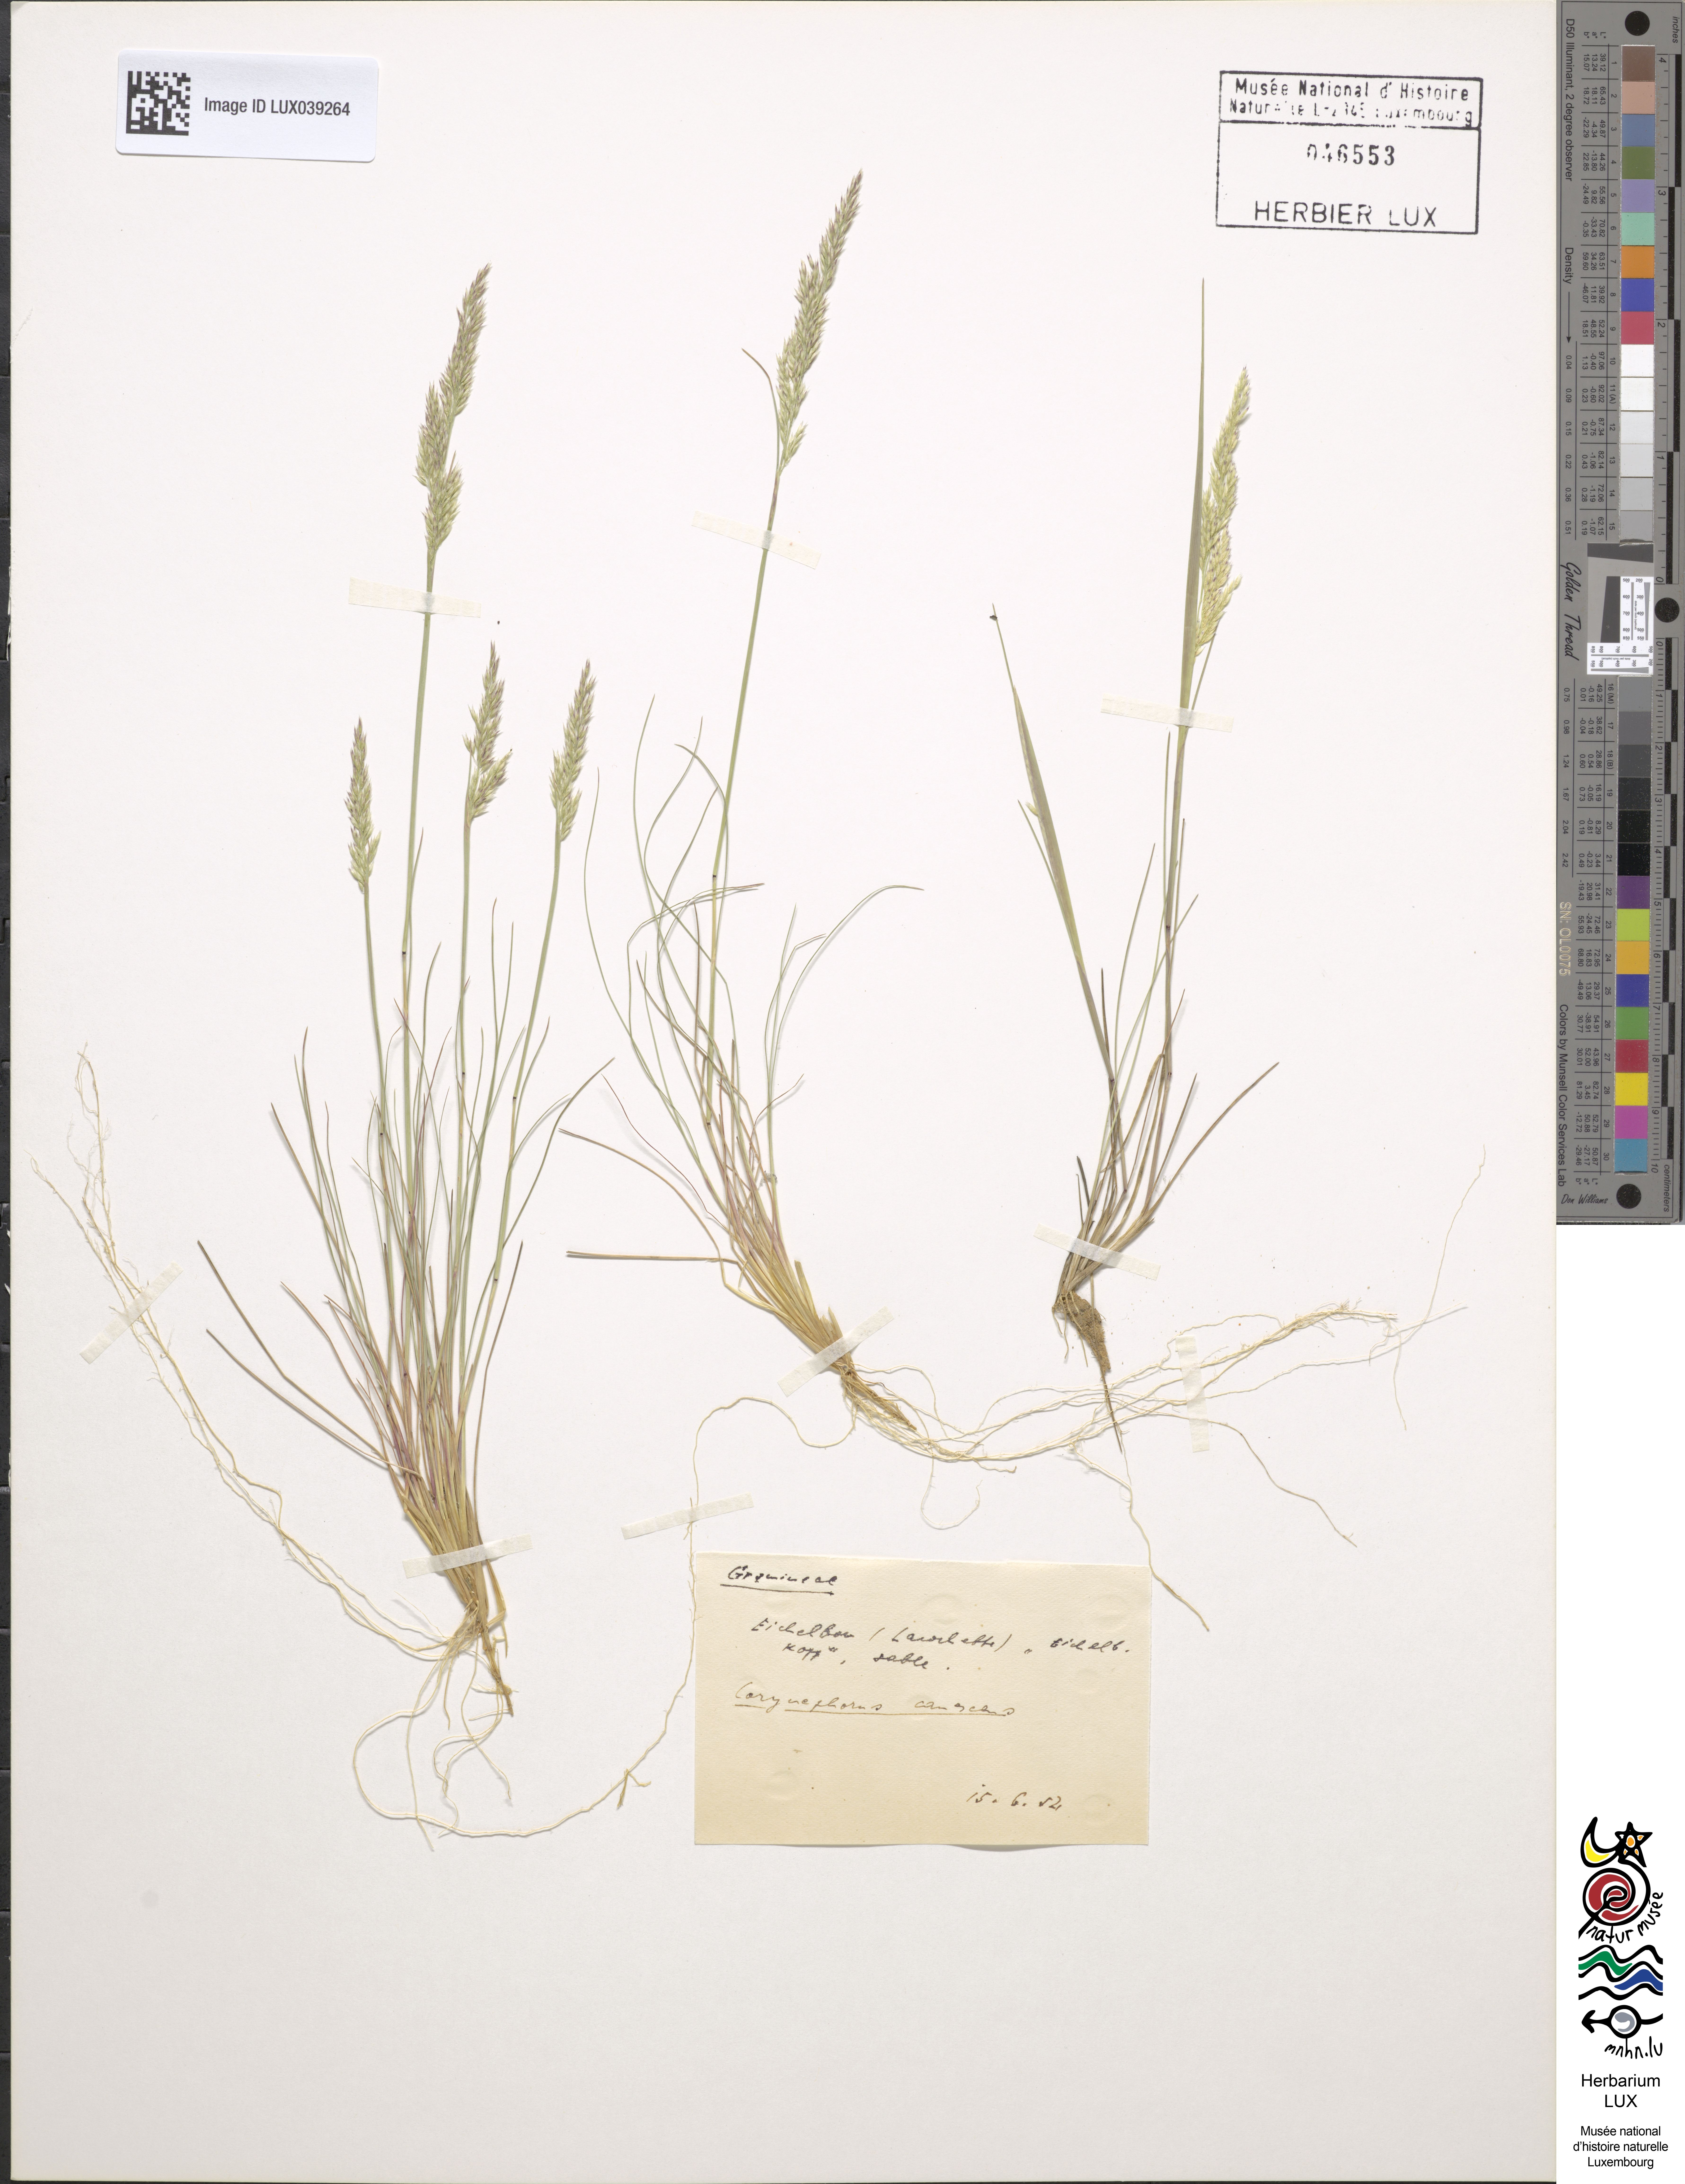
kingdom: Plantae
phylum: Tracheophyta
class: Liliopsida
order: Poales
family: Poaceae
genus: Corynephorus
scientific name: Corynephorus canescens
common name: Grey hair-grass
